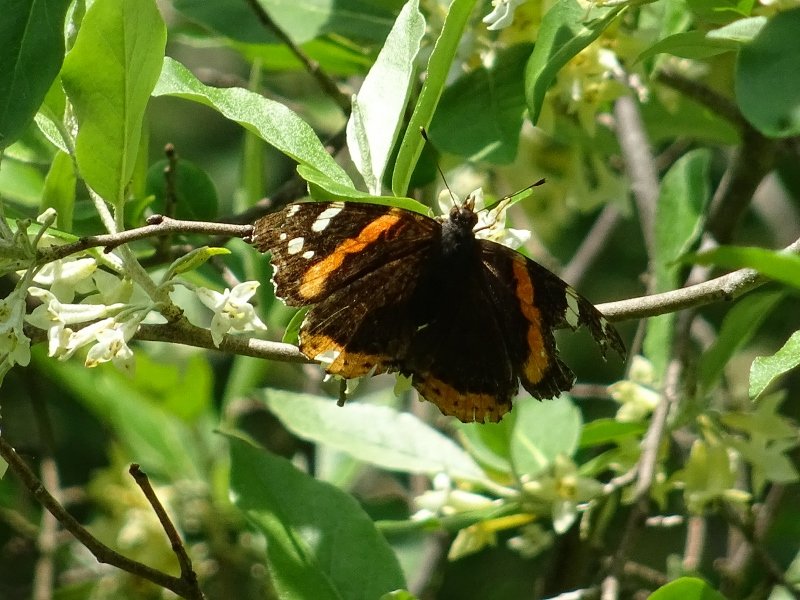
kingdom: Animalia
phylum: Arthropoda
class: Insecta
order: Lepidoptera
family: Nymphalidae
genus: Vanessa
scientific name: Vanessa atalanta
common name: Red Admiral
